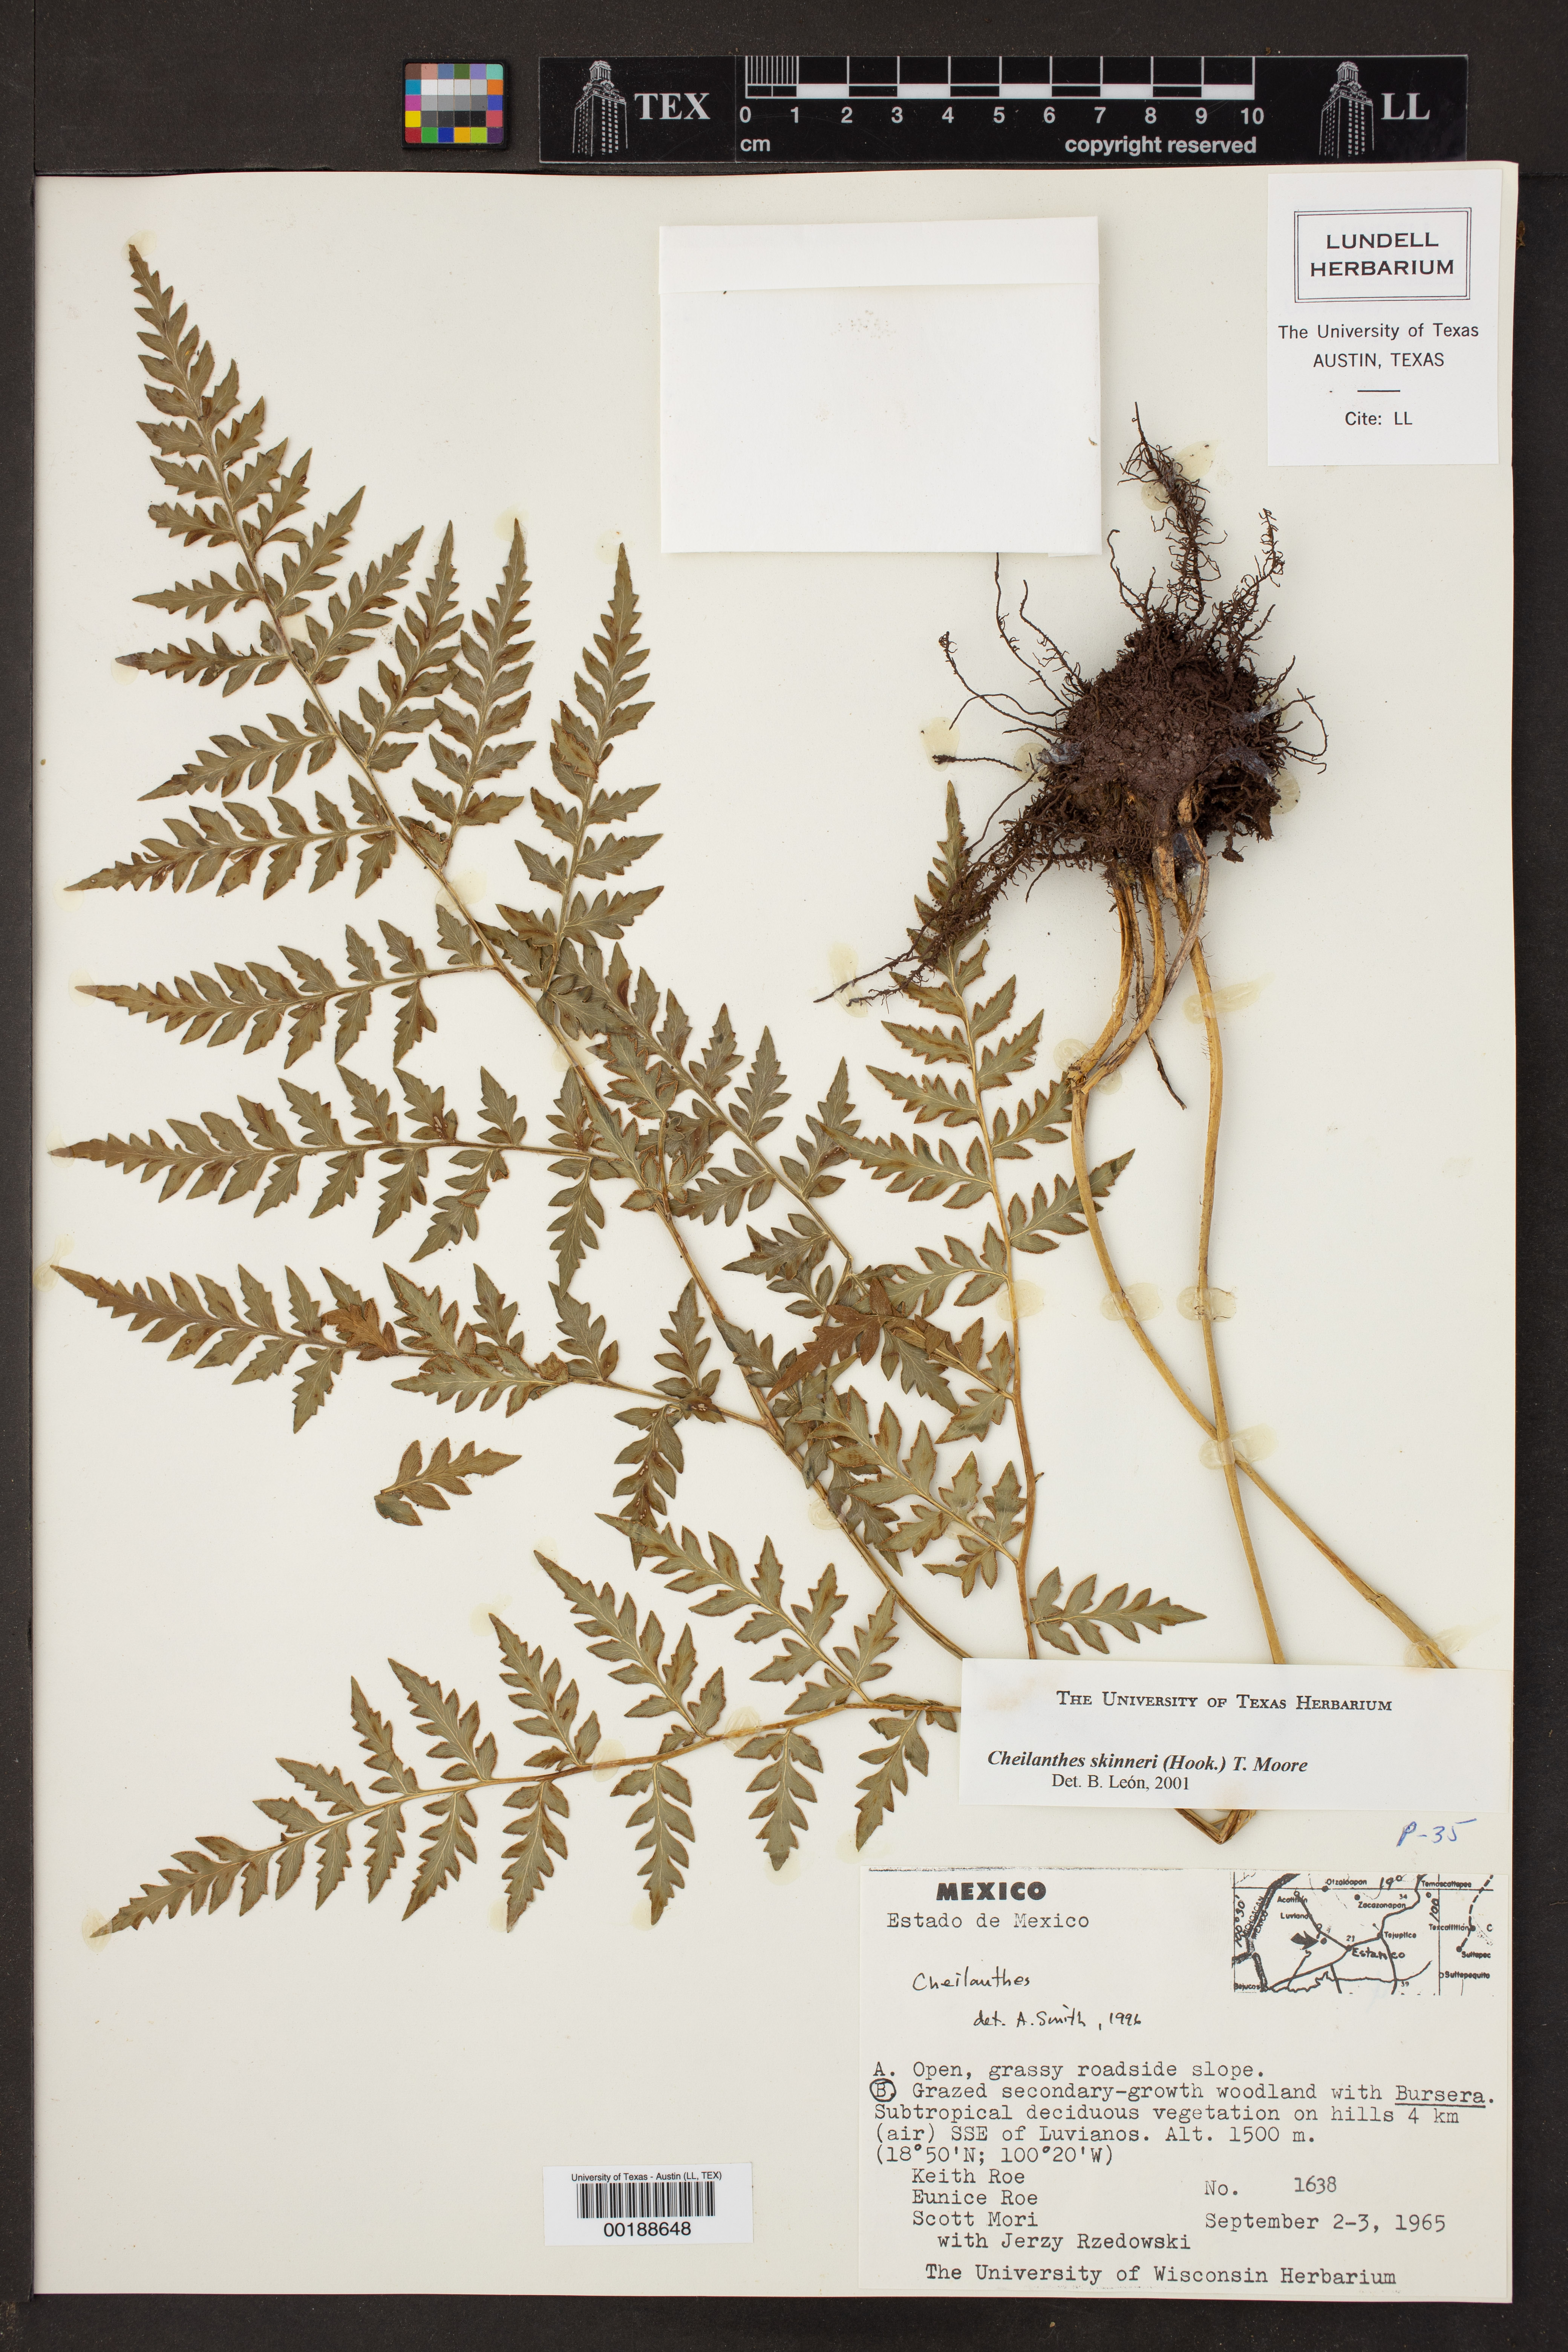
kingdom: Plantae
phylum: Tracheophyta
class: Polypodiopsida
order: Polypodiales
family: Pteridaceae
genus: Cheilanthes
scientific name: Cheilanthes skinneri
